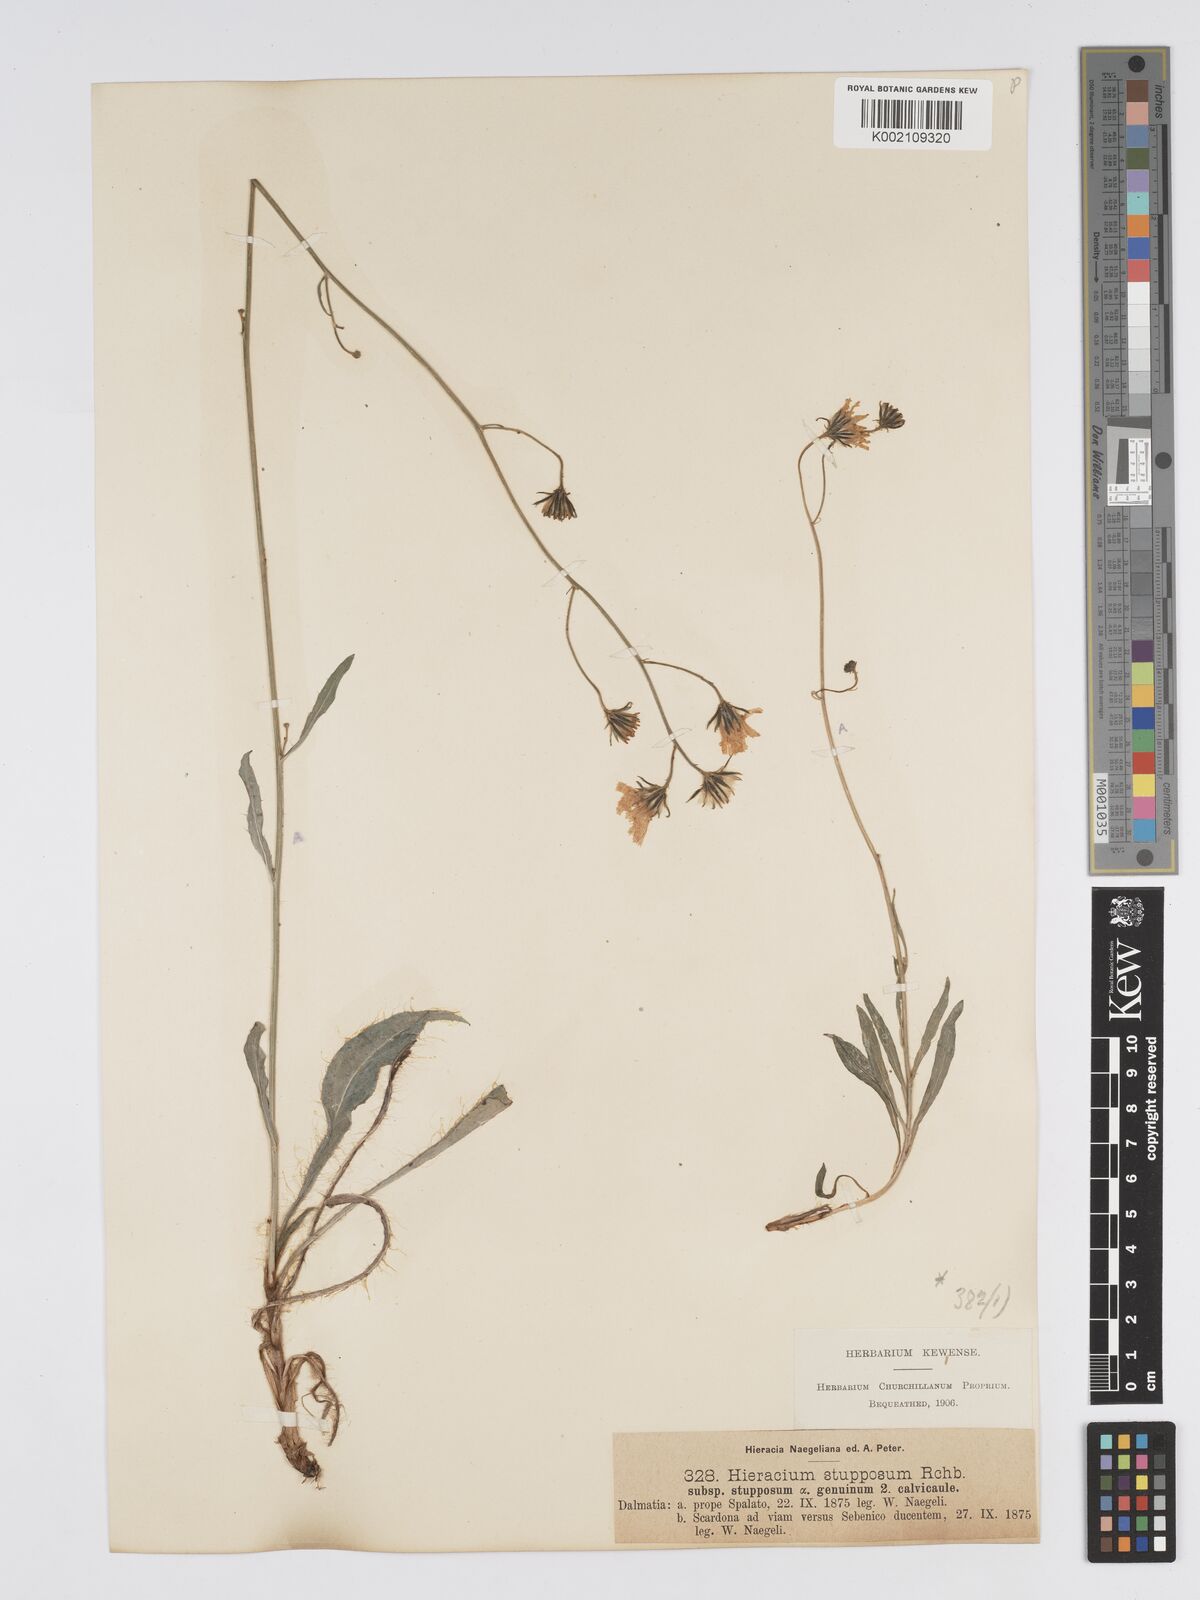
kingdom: Plantae
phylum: Tracheophyta
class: Magnoliopsida
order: Asterales
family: Asteraceae
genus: Hieracium
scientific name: Hieracium heterogynum
